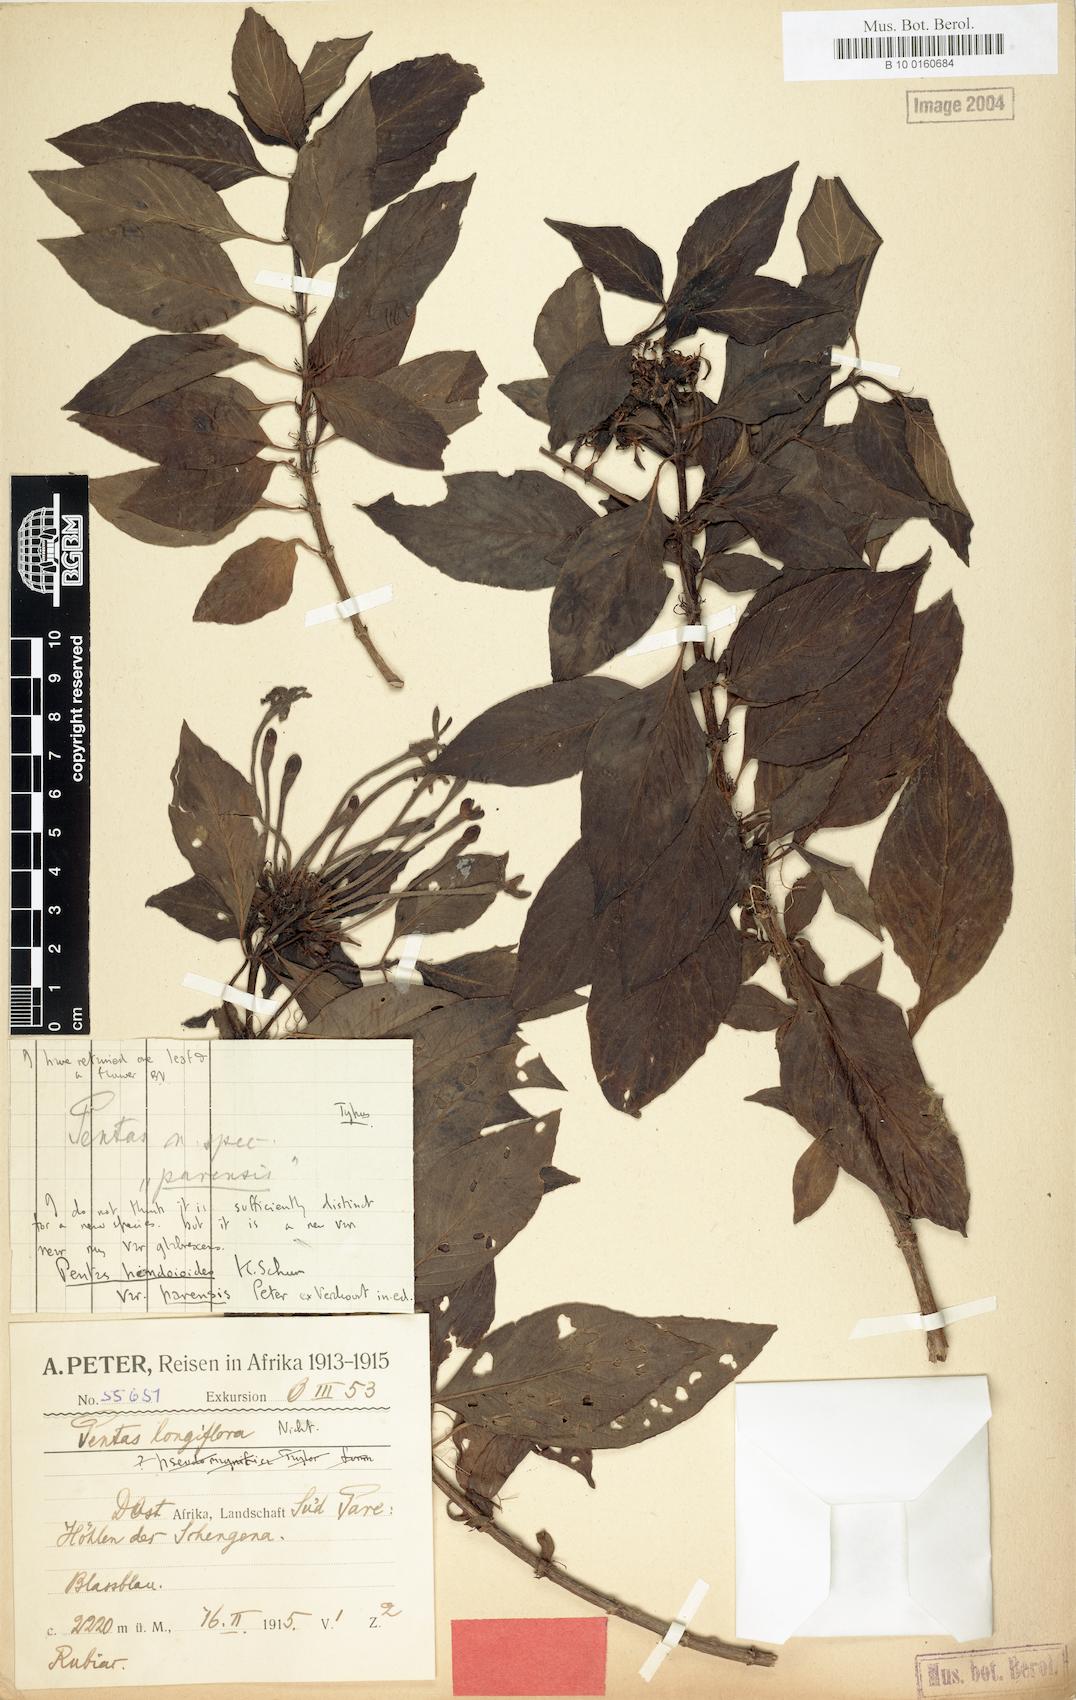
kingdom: Plantae
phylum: Tracheophyta
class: Magnoliopsida
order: Gentianales
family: Rubiaceae
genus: Chamaepentas
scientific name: Chamaepentas hindsioides
